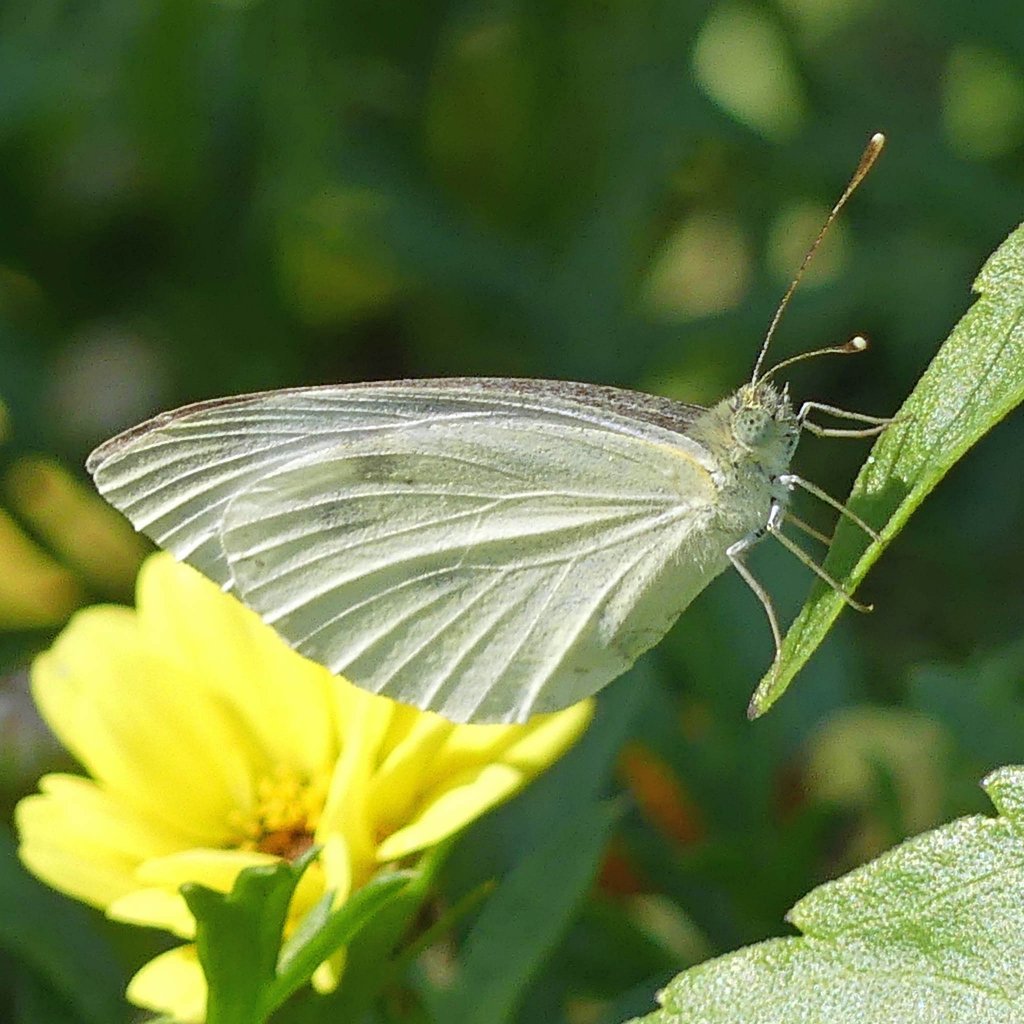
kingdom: Animalia
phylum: Arthropoda
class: Insecta
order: Lepidoptera
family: Pieridae
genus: Pieris
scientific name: Pieris rapae
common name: Cabbage White
